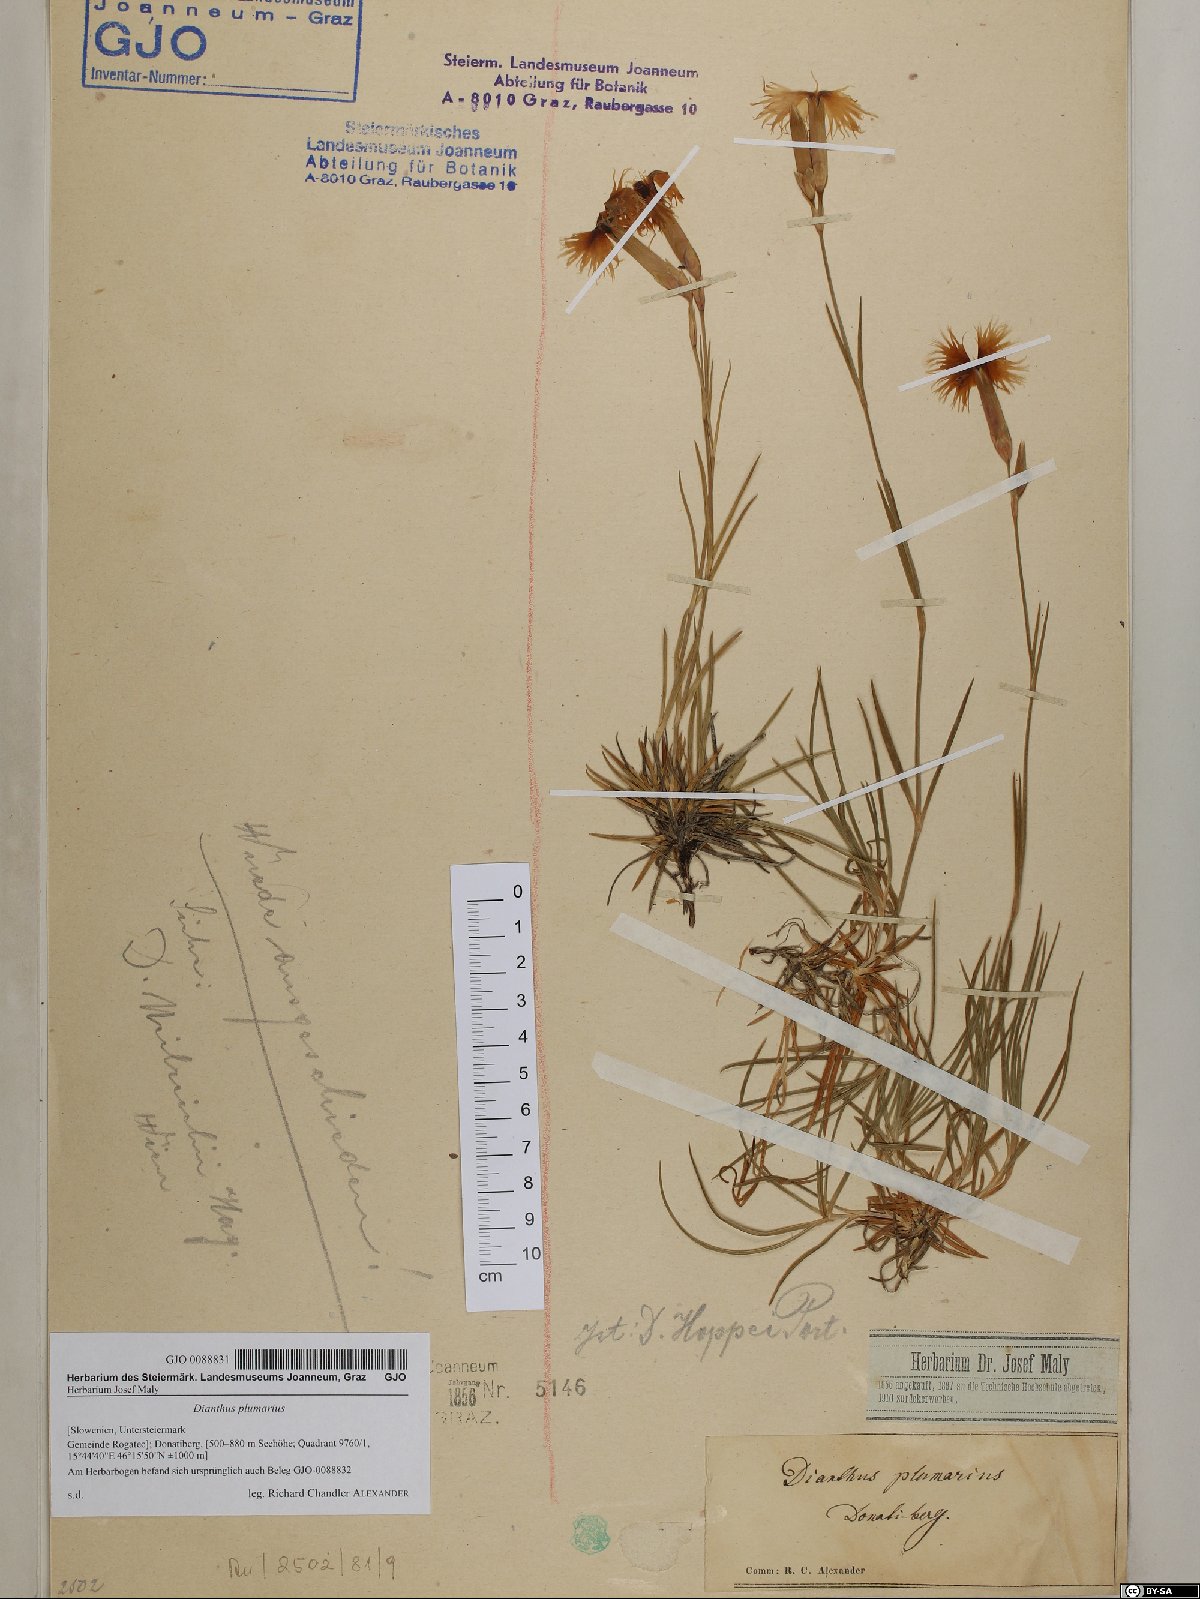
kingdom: Plantae
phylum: Tracheophyta
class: Magnoliopsida
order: Caryophyllales
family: Caryophyllaceae
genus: Dianthus
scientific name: Dianthus plumarius
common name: Pink
